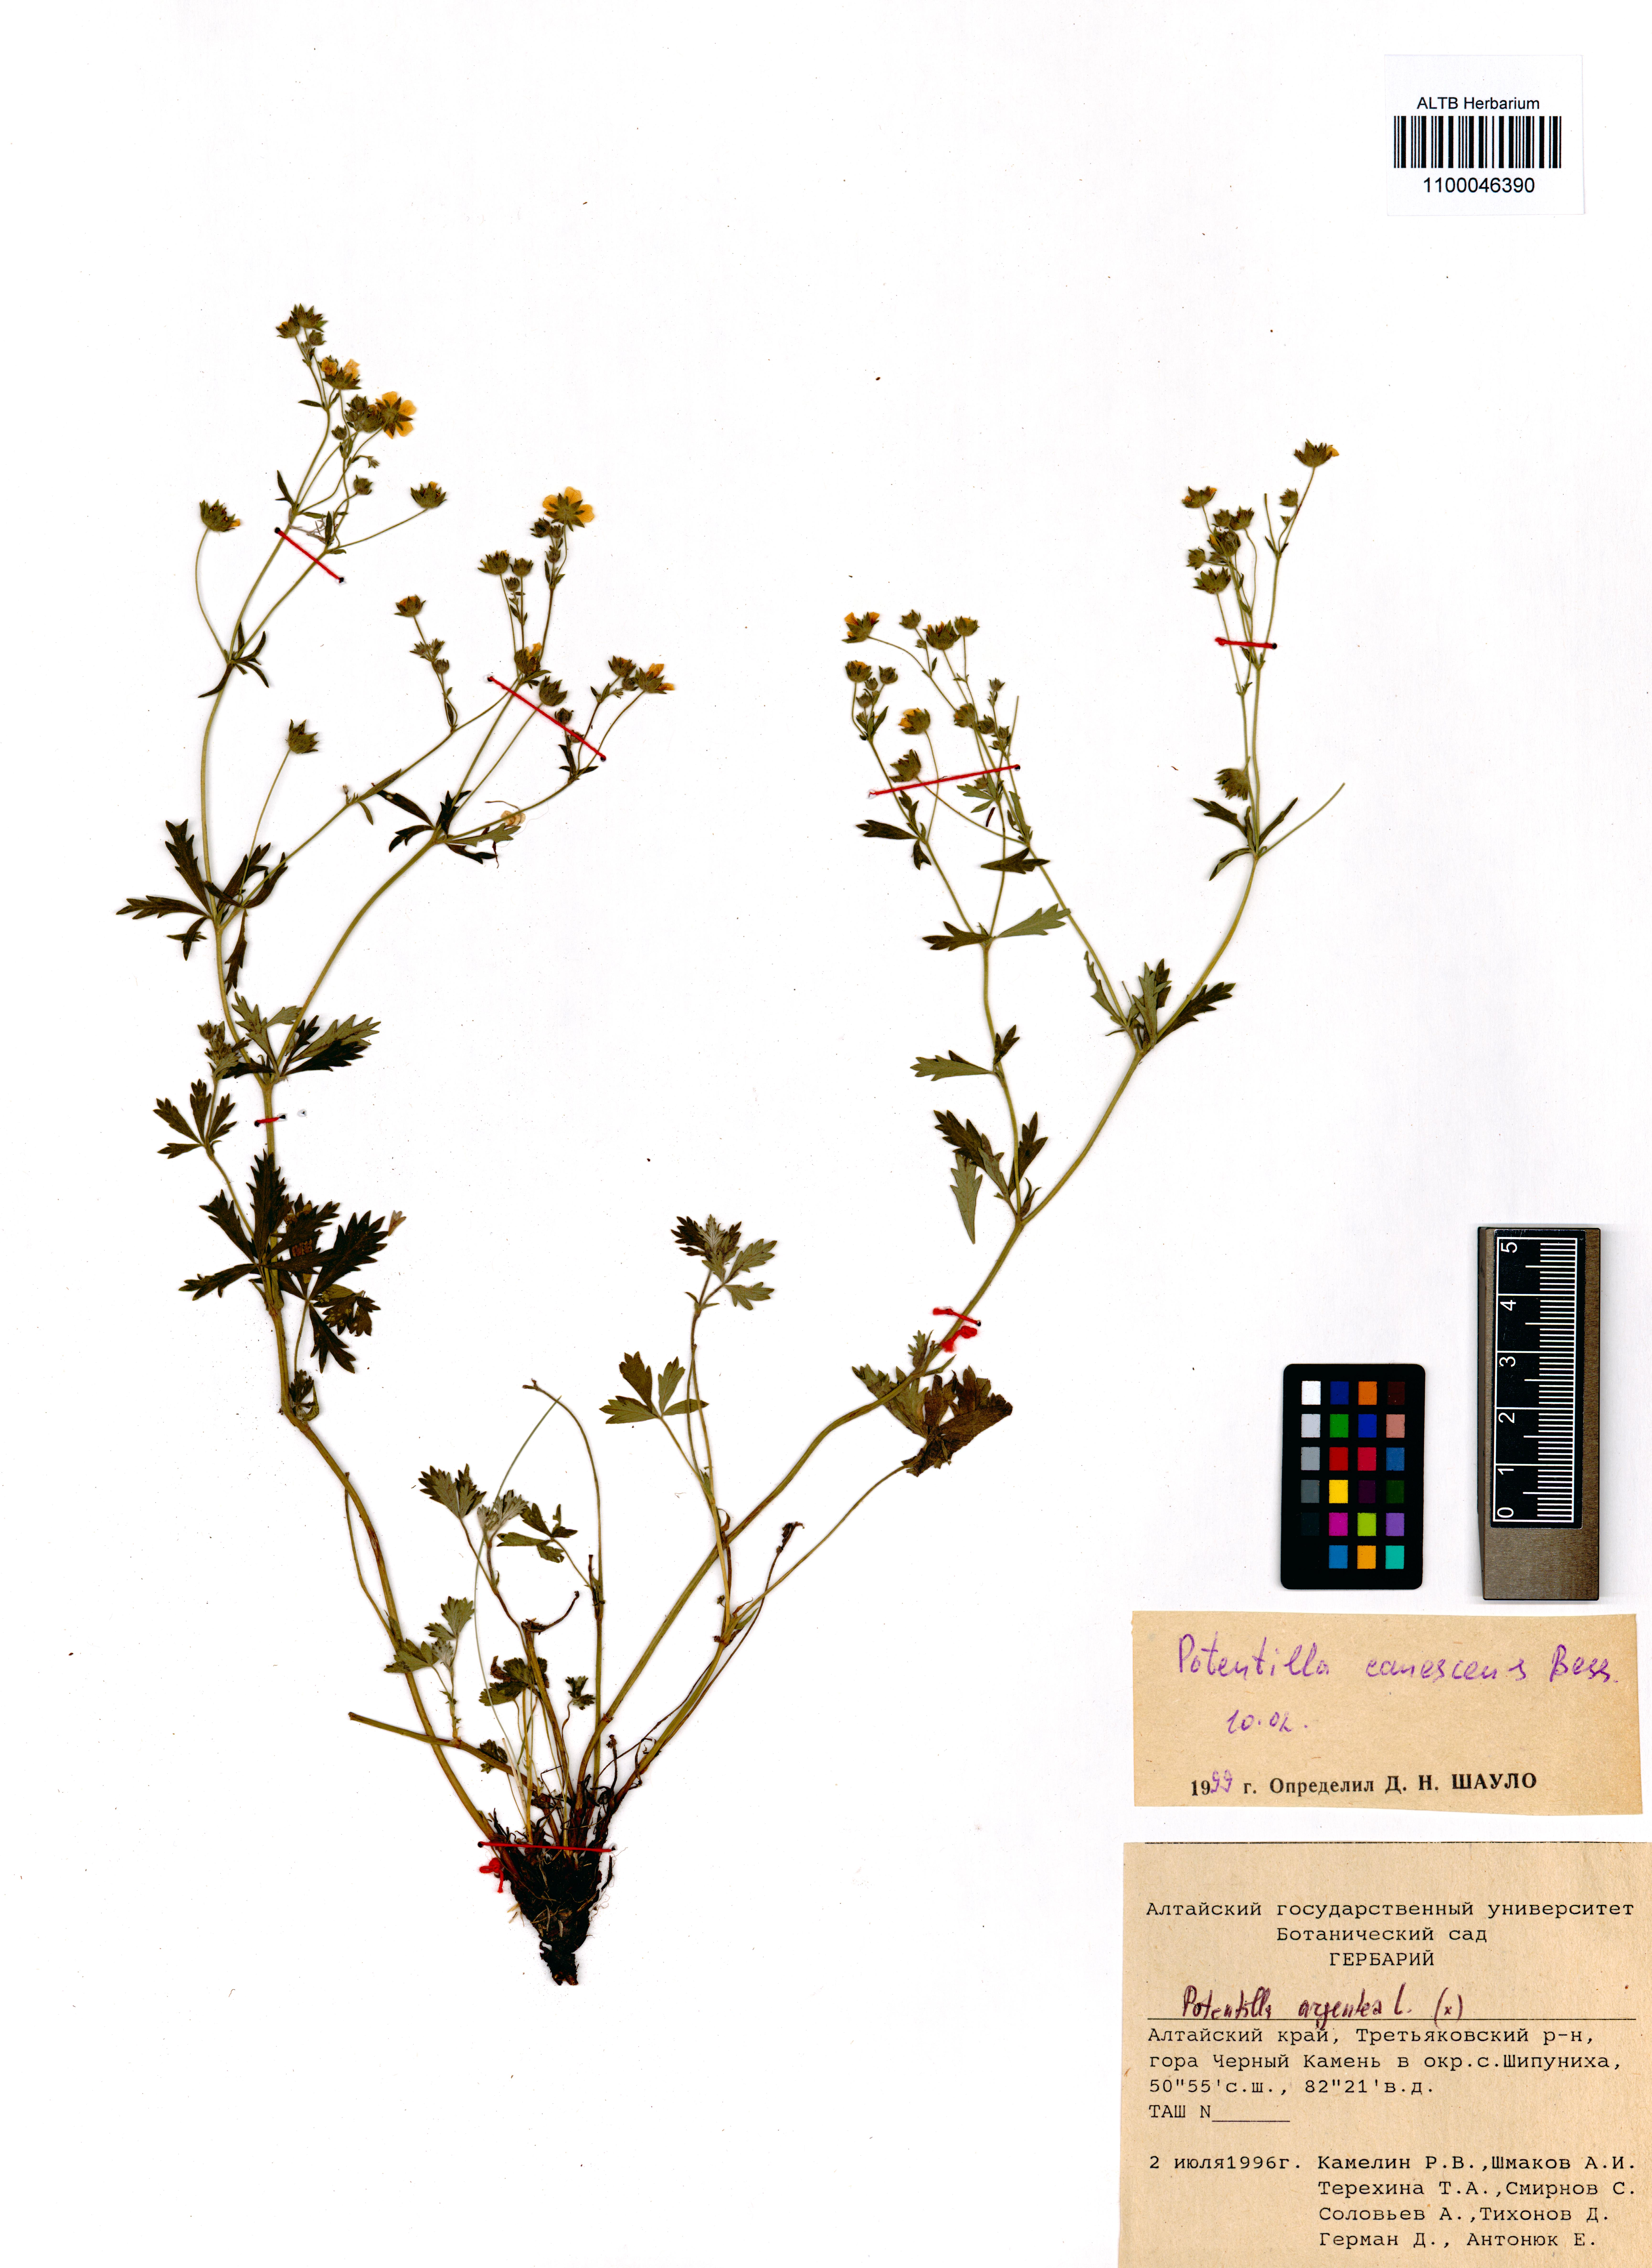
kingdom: Plantae
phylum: Tracheophyta
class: Magnoliopsida
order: Rosales
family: Rosaceae
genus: Potentilla
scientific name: Potentilla inclinata
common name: Grey cinquefoil
